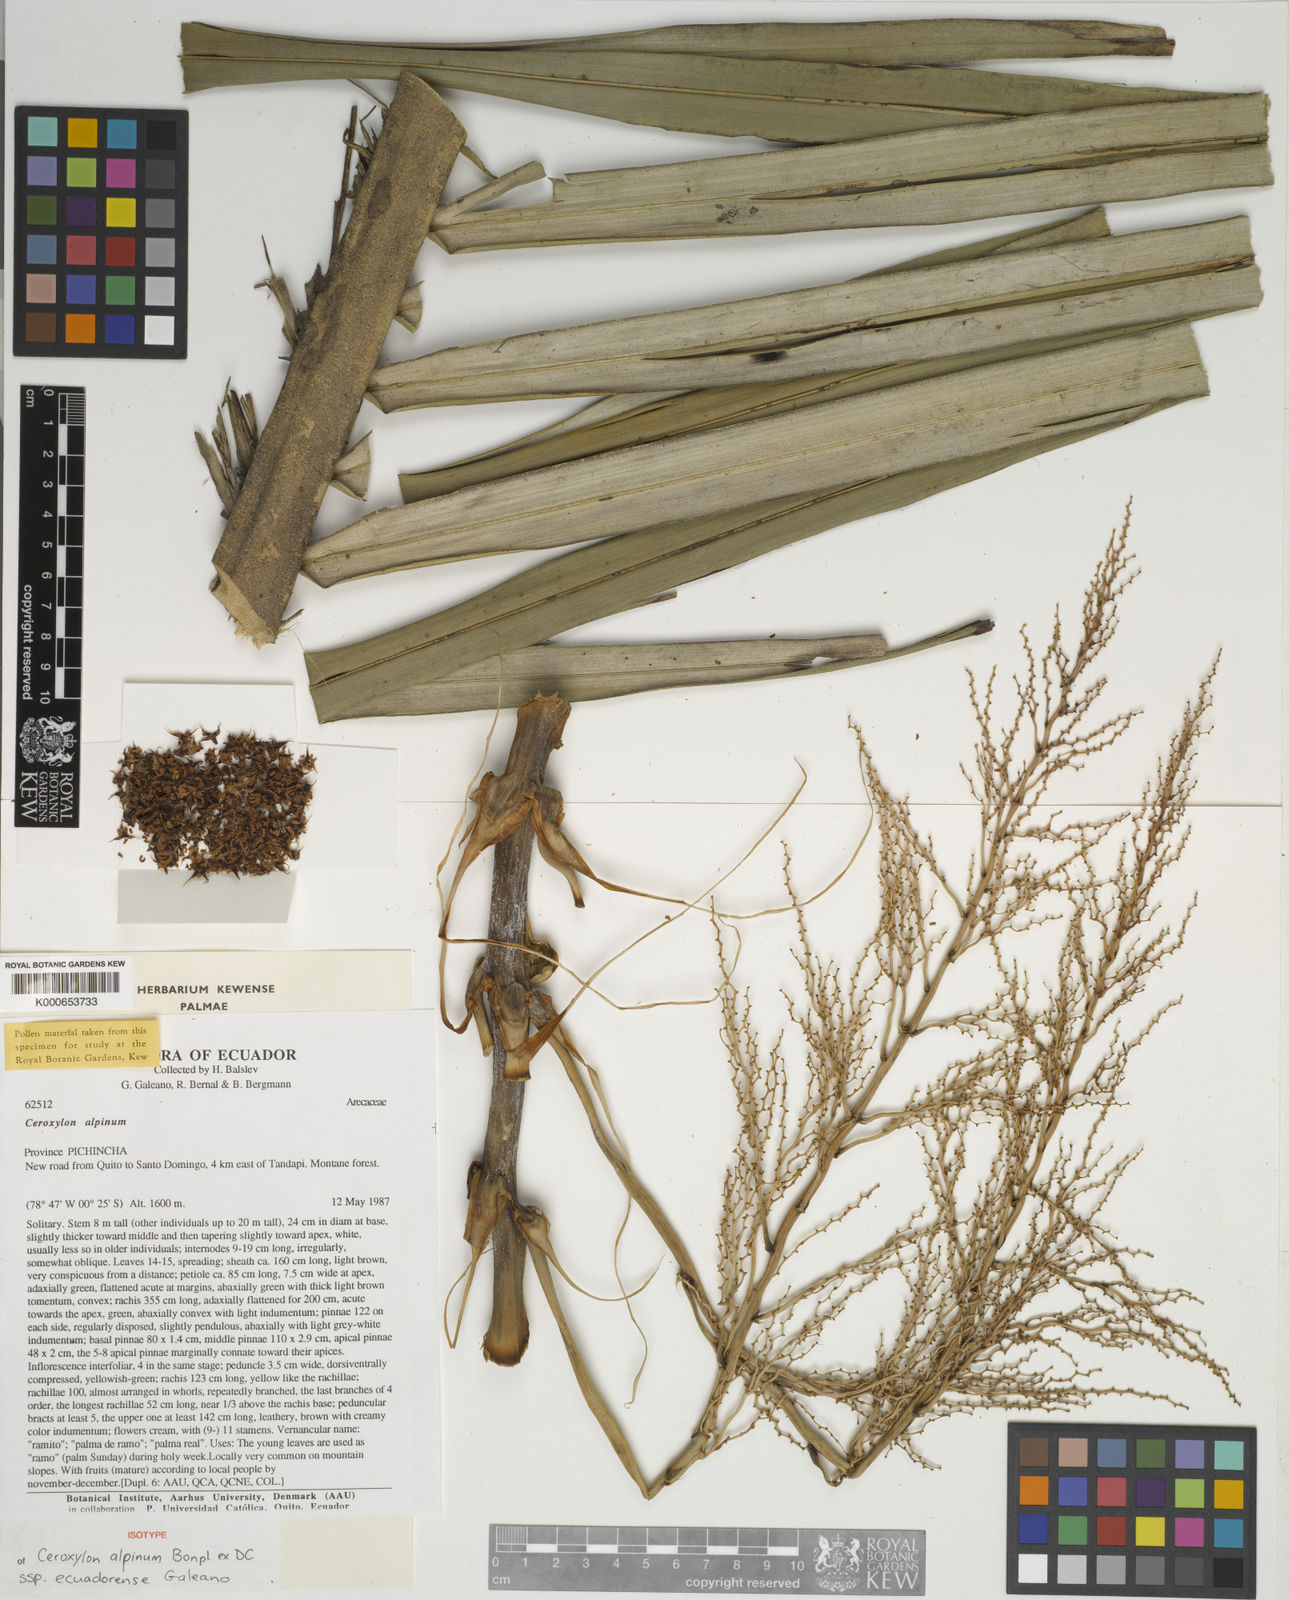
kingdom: Plantae
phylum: Tracheophyta
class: Liliopsida
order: Arecales
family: Arecaceae
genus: Ceroxylon
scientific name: Ceroxylon alpinum
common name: Wax palm
